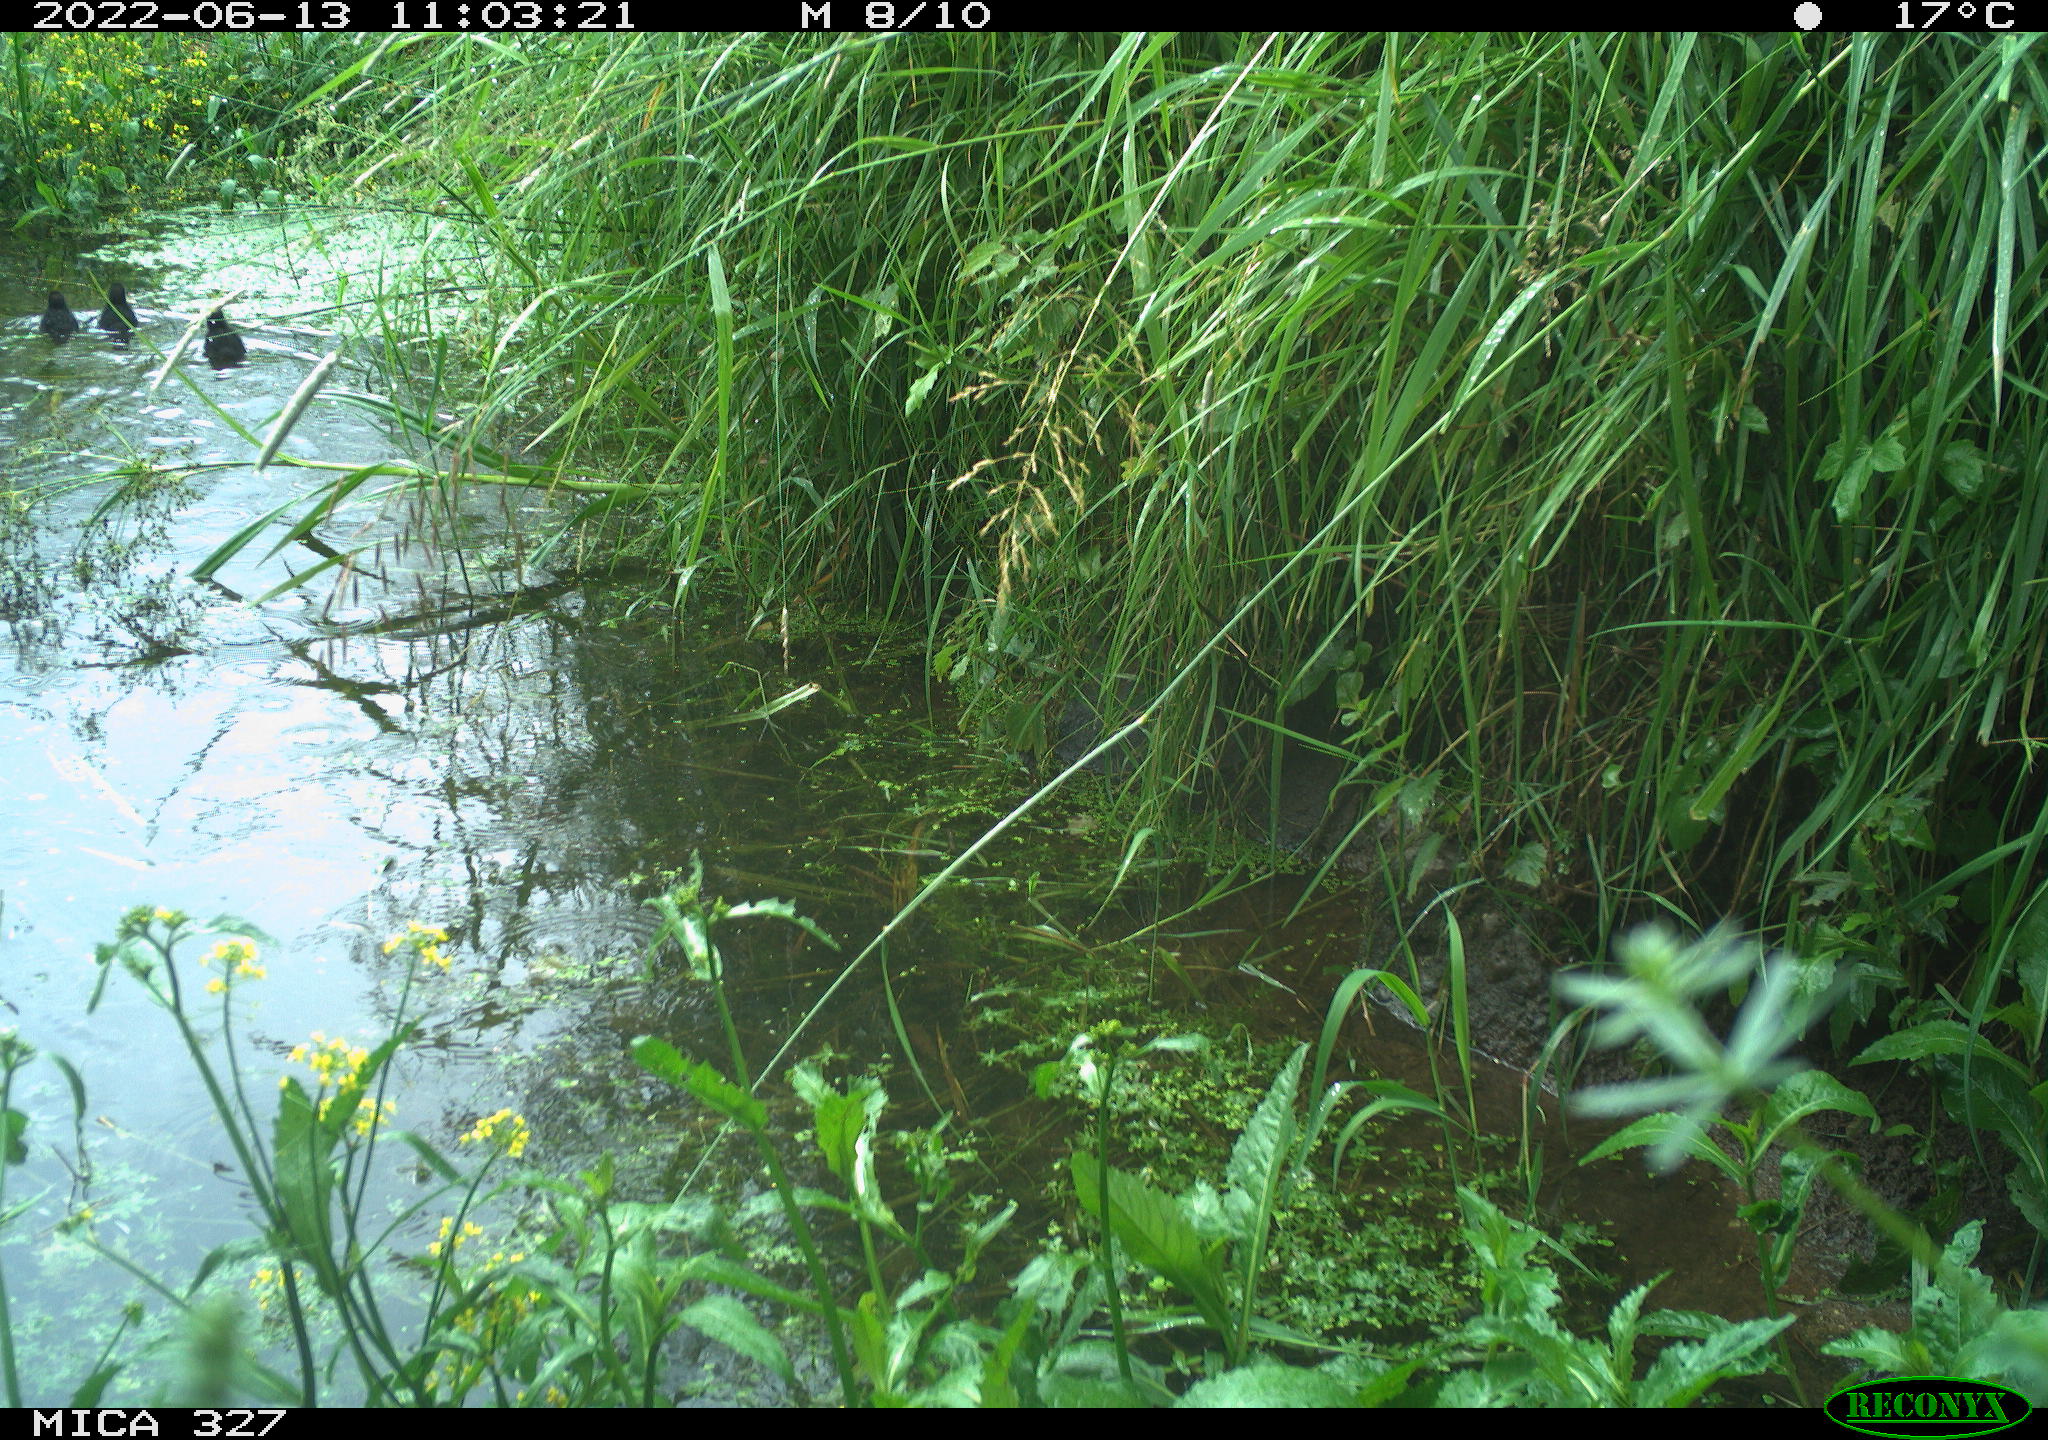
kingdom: Animalia
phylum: Chordata
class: Aves
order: Gruiformes
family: Rallidae
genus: Gallinula
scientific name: Gallinula chloropus
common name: Common moorhen
